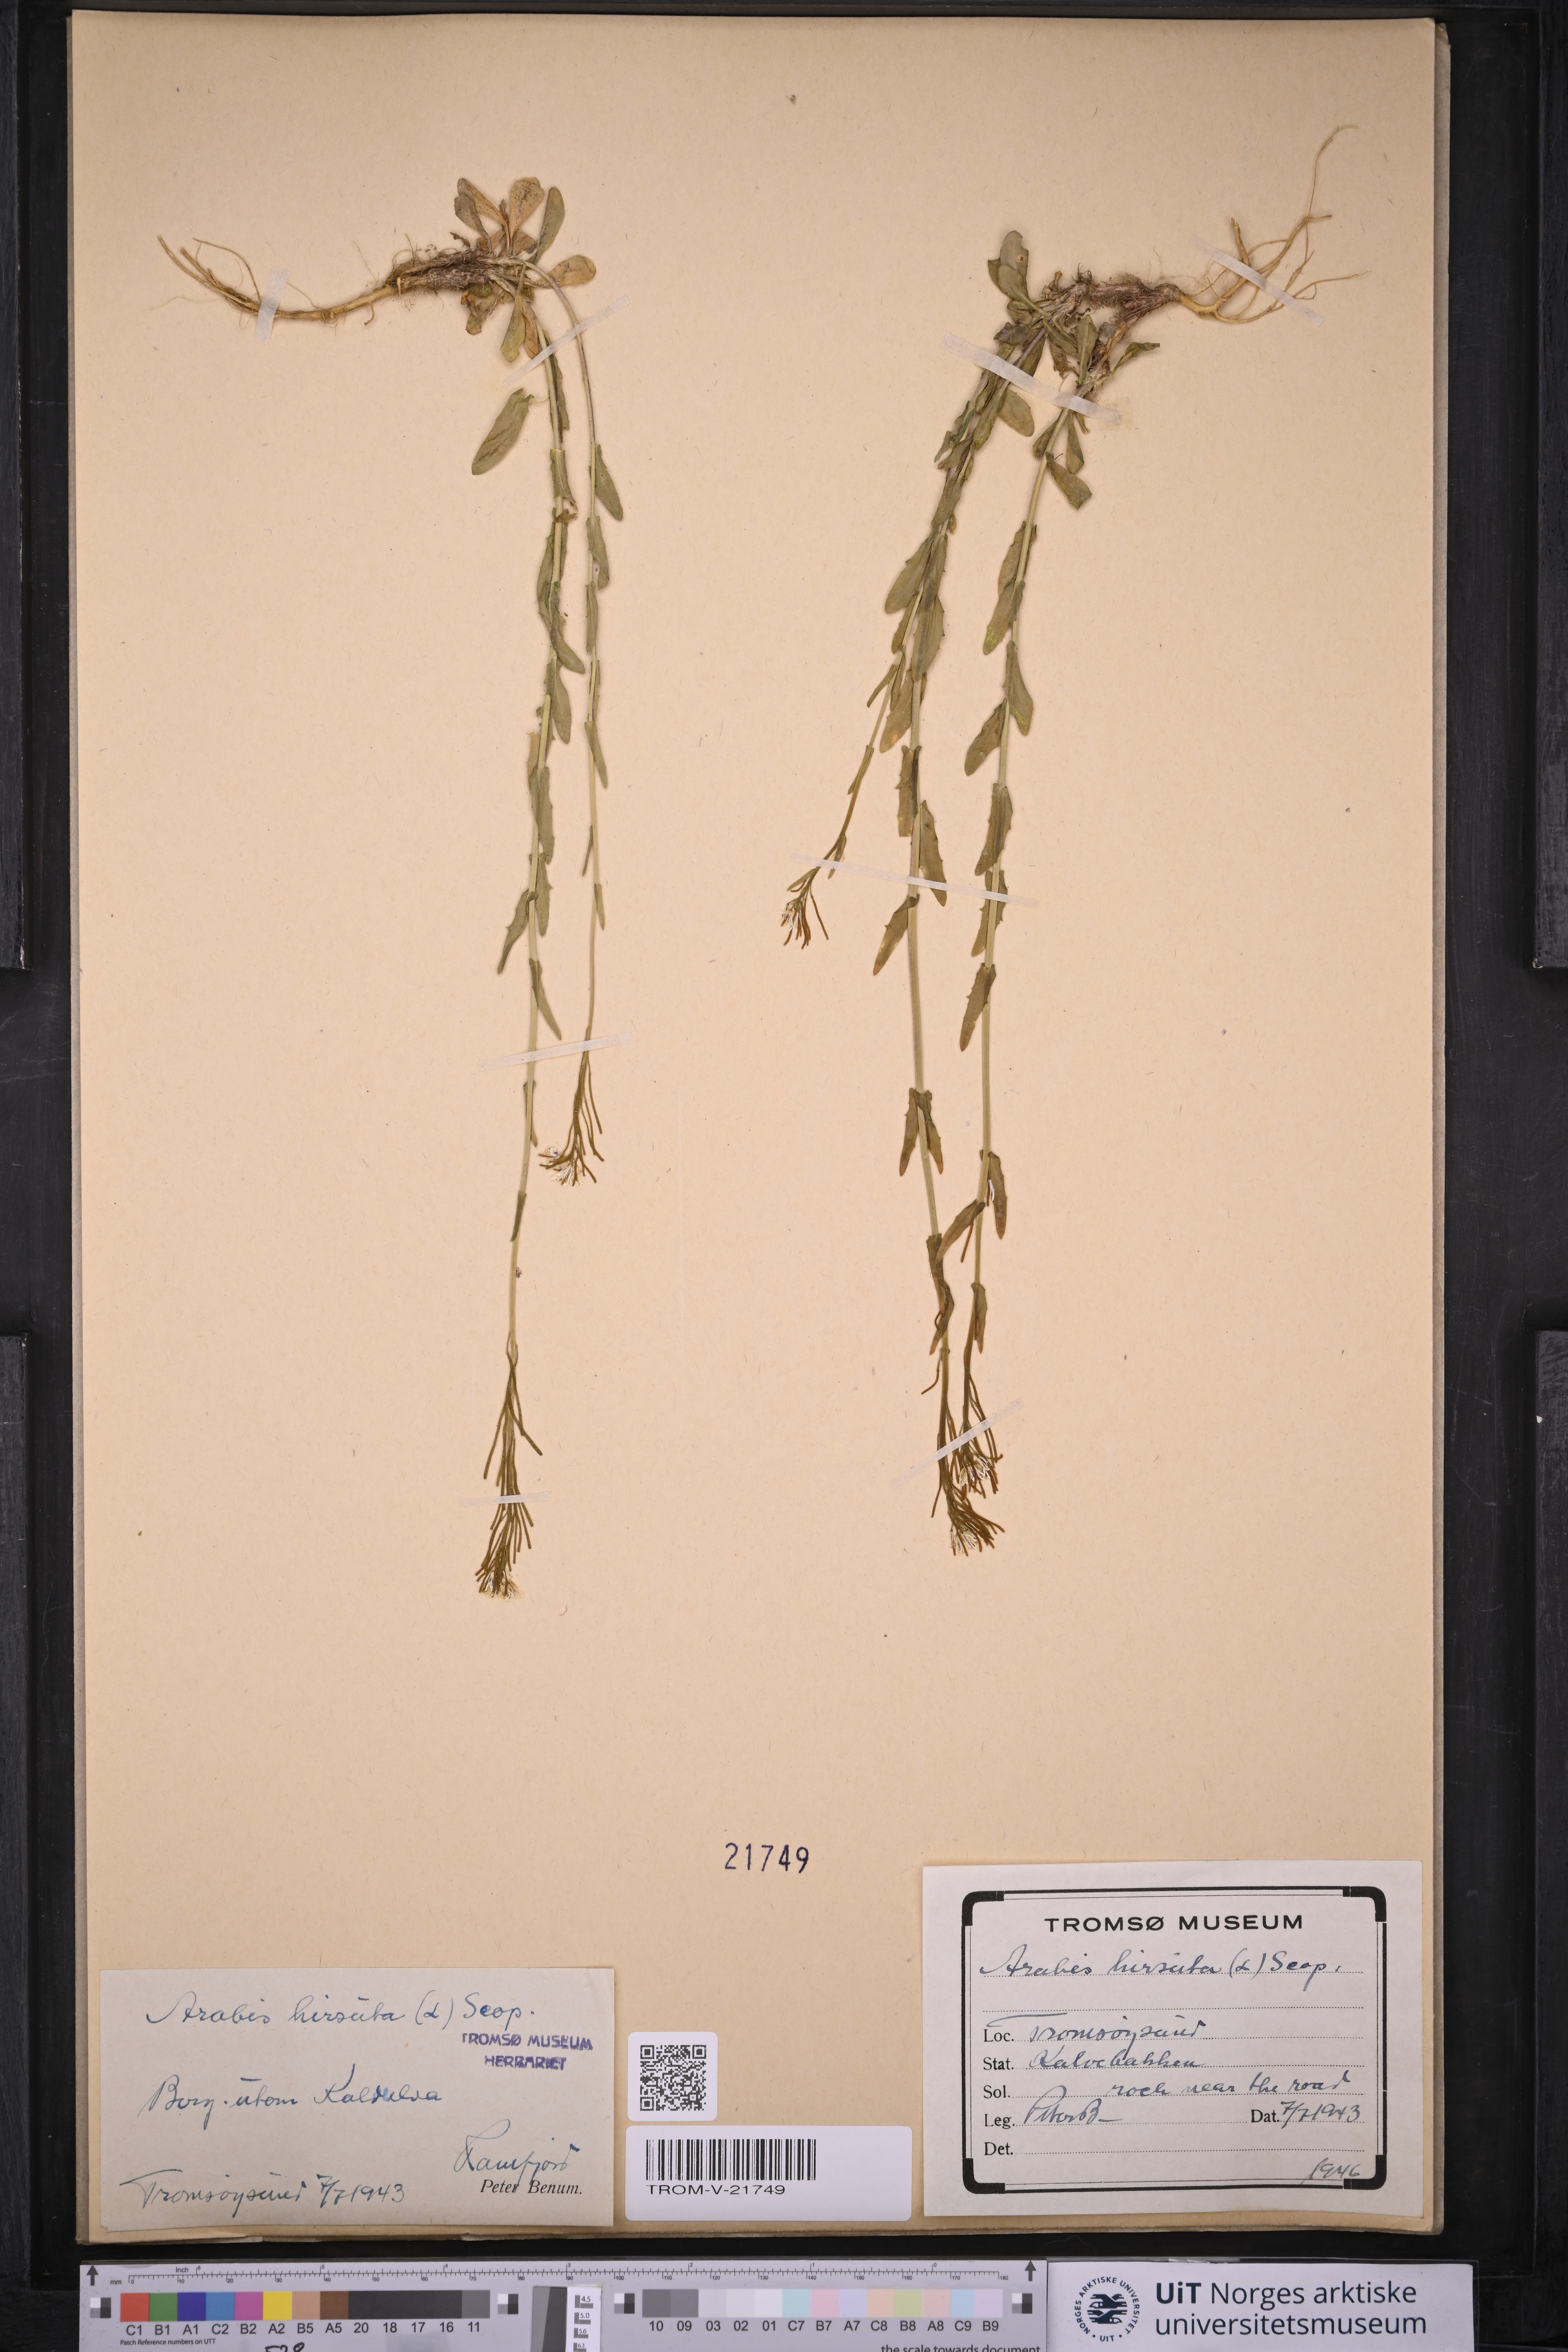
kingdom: Plantae
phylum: Tracheophyta
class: Magnoliopsida
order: Brassicales
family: Brassicaceae
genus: Arabis
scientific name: Arabis hirsuta
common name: Hairy rock-cress
